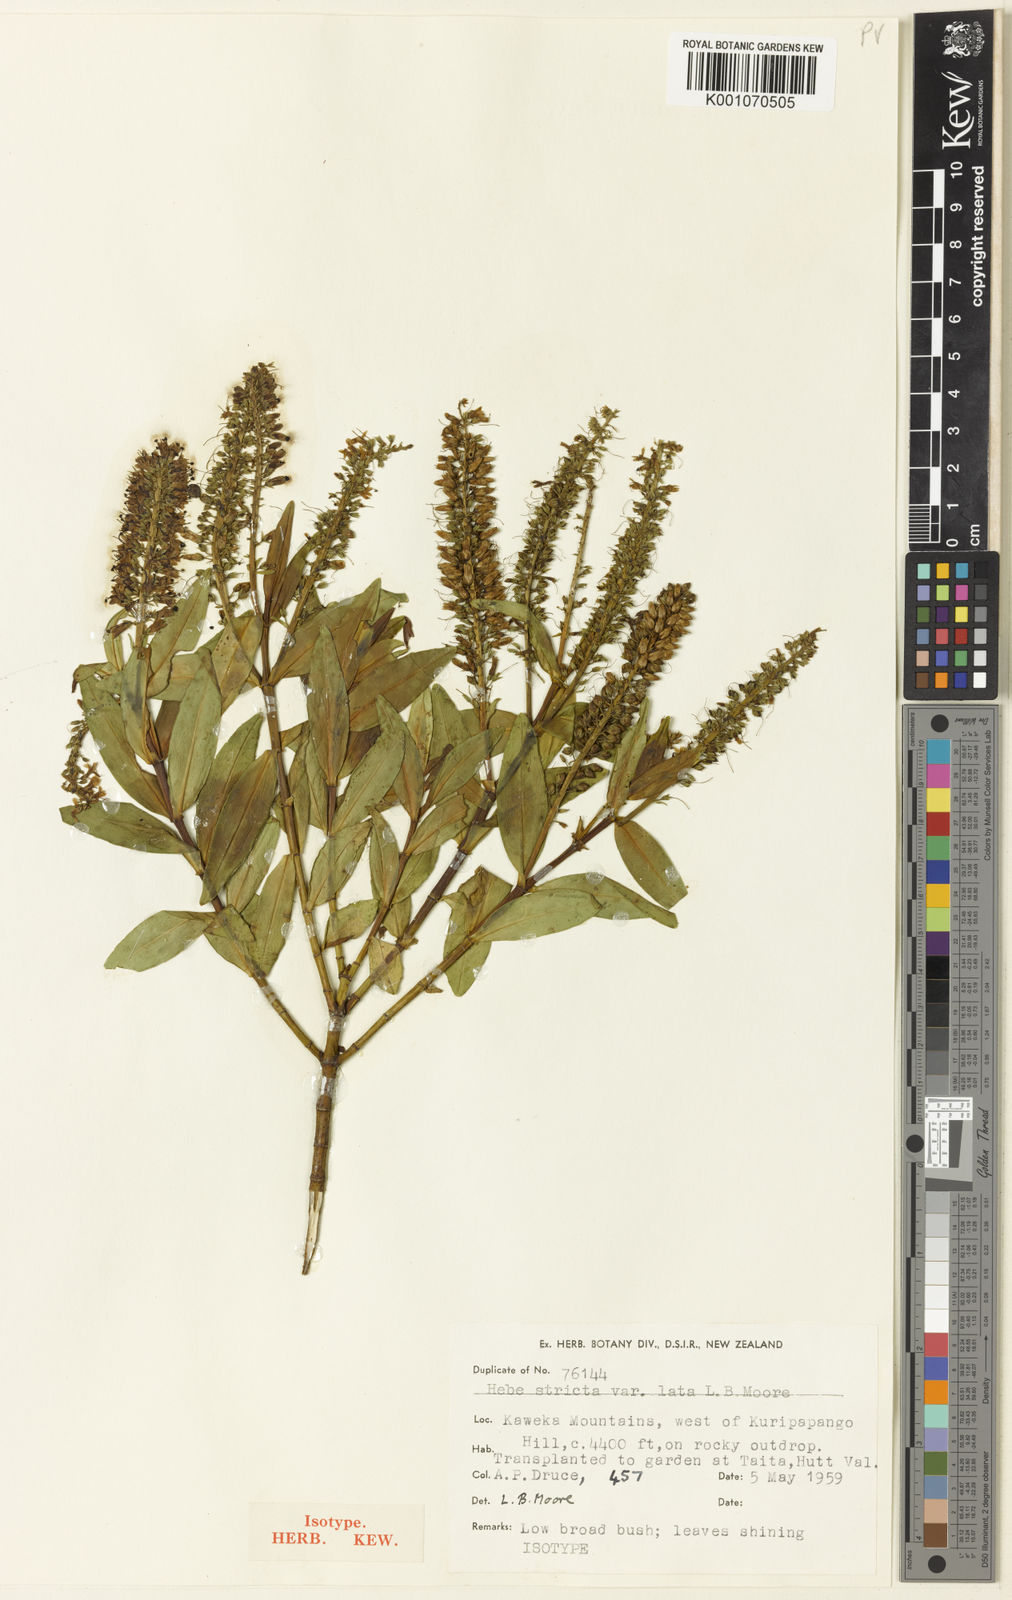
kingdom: Plantae
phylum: Tracheophyta
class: Magnoliopsida
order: Lamiales
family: Plantaginaceae
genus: Veronica
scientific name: Veronica stricta
